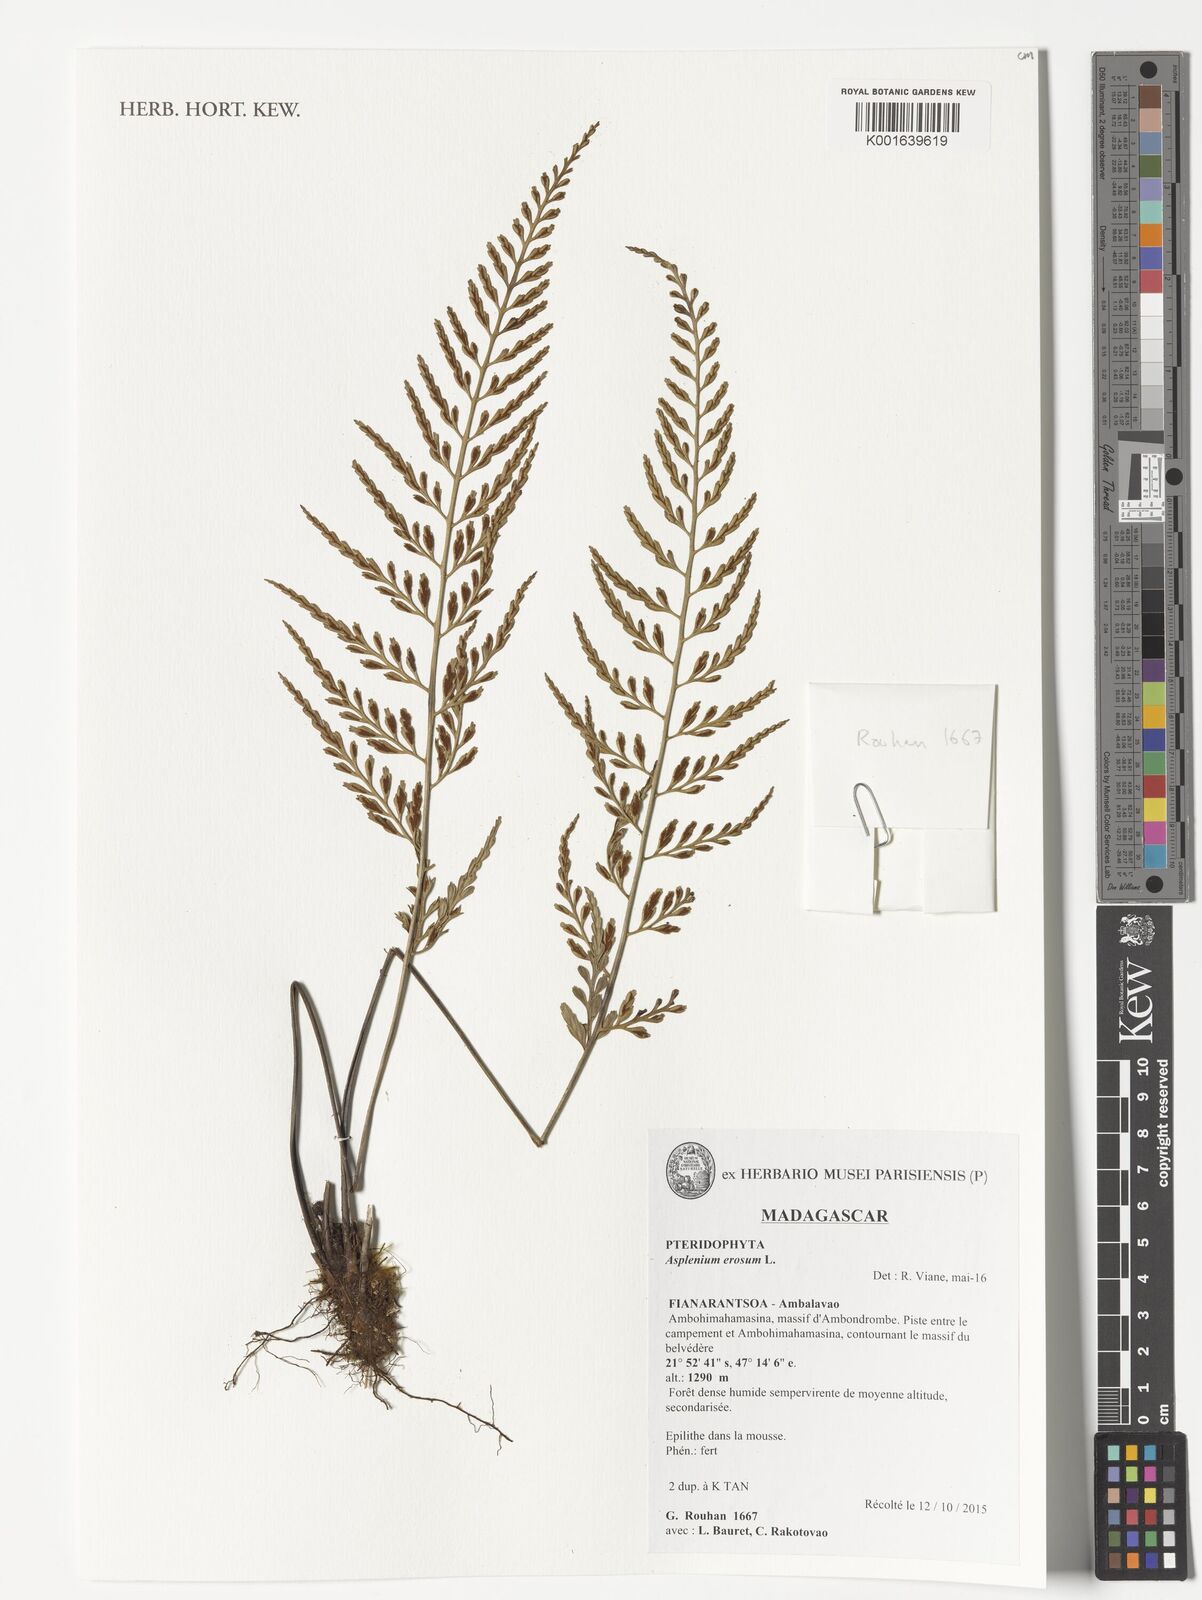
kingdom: Plantae
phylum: Tracheophyta
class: Polypodiopsida
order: Polypodiales
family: Aspleniaceae
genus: Asplenium
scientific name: Asplenium erosum
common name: Eared spleenwort
